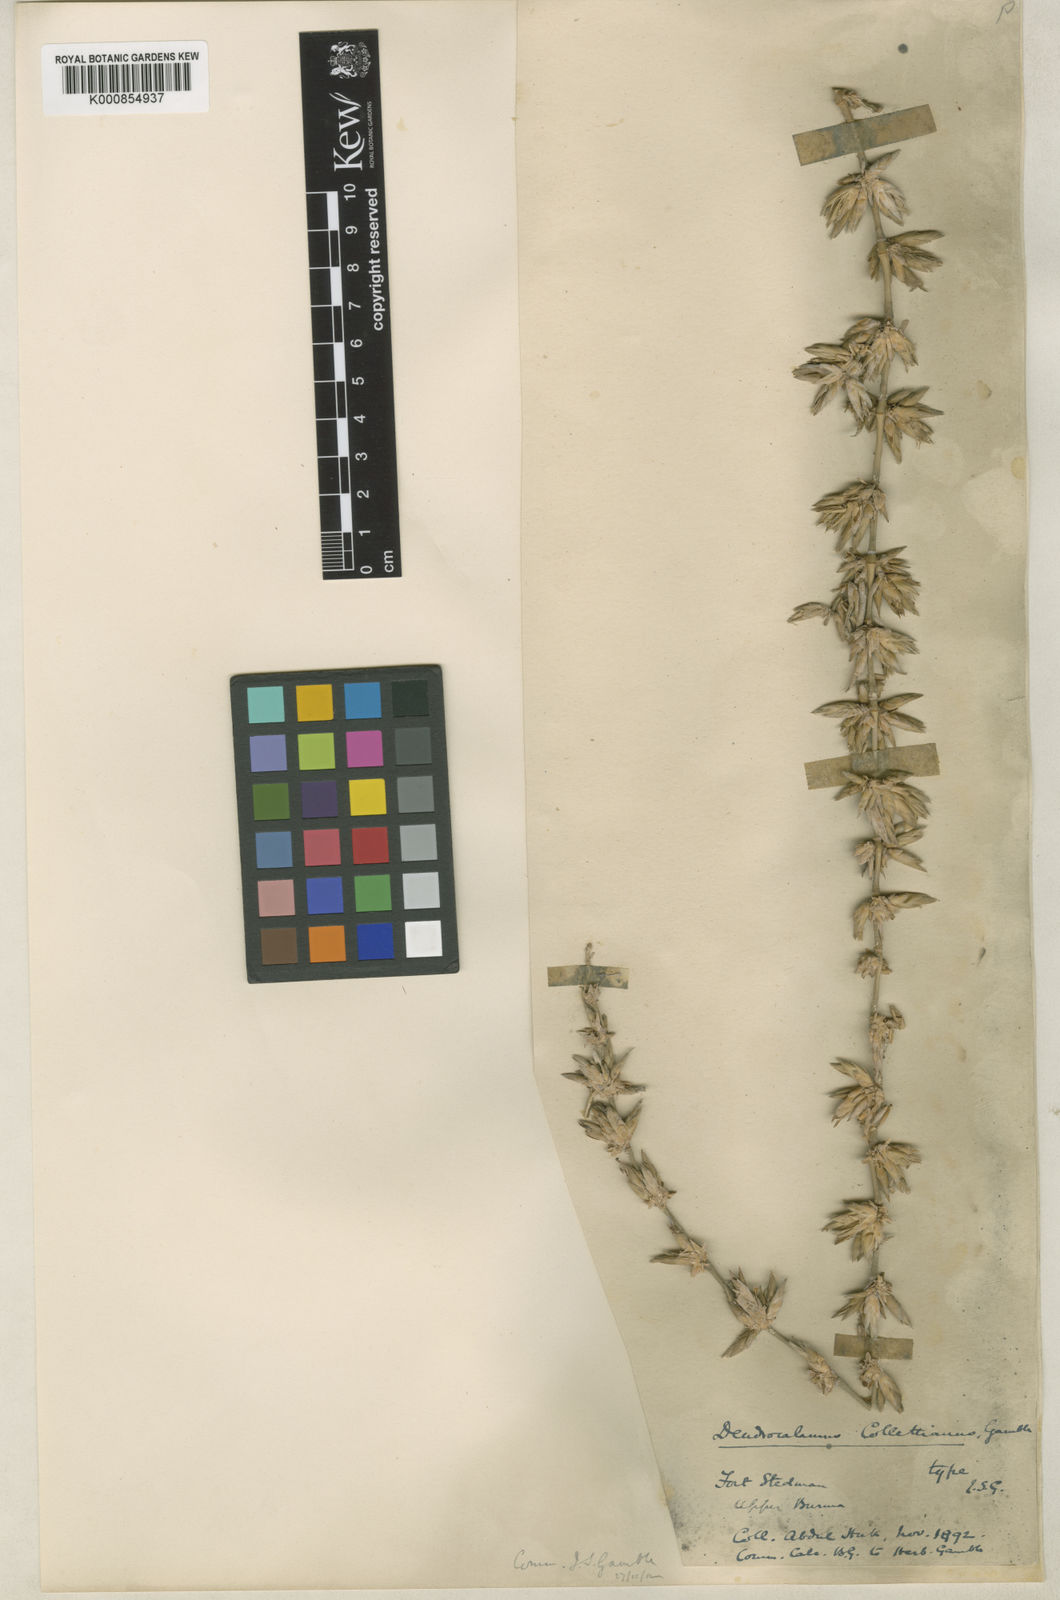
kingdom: Plantae
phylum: Tracheophyta
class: Liliopsida
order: Poales
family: Poaceae
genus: Dendrocalamus
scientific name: Dendrocalamus collettianus
